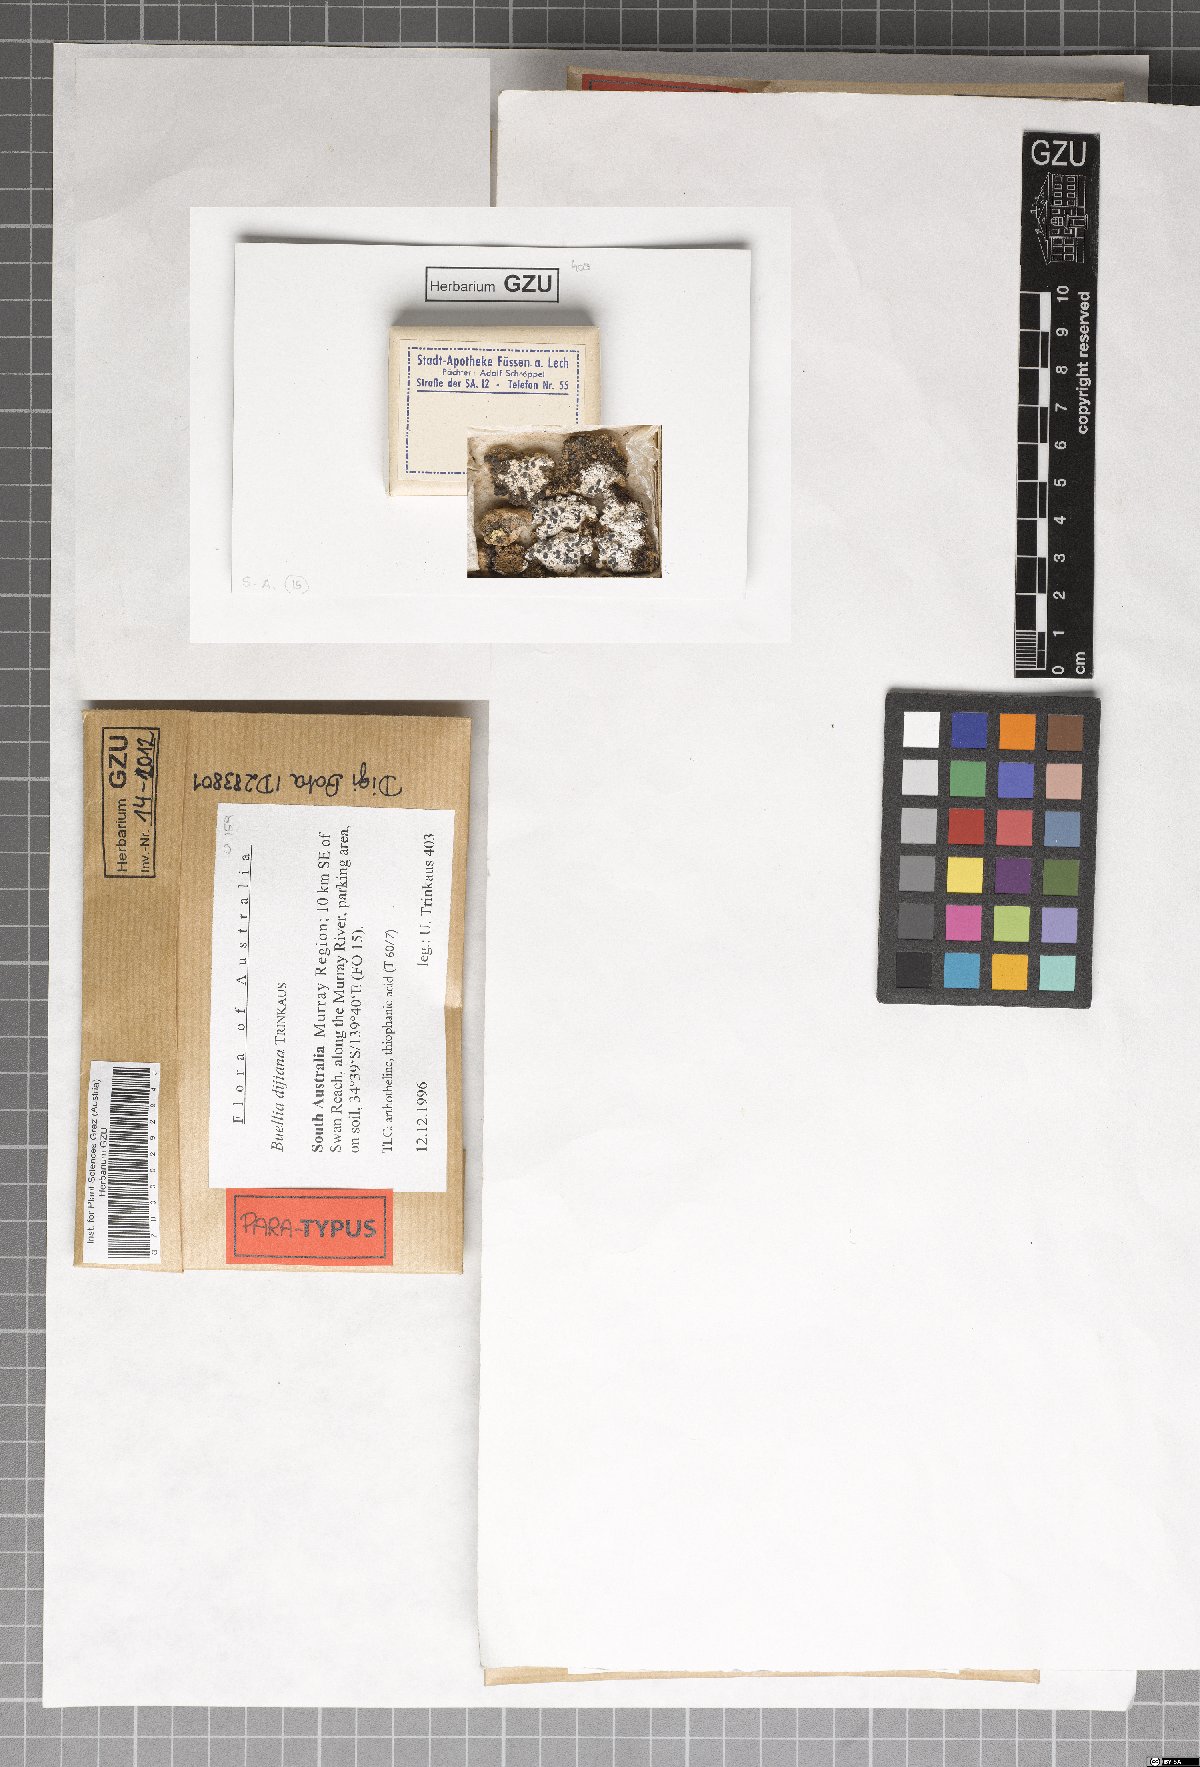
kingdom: Fungi
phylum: Ascomycota
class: Lecanoromycetes
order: Caliciales
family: Caliciaceae
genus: Buellia
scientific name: Buellia dayboroana
